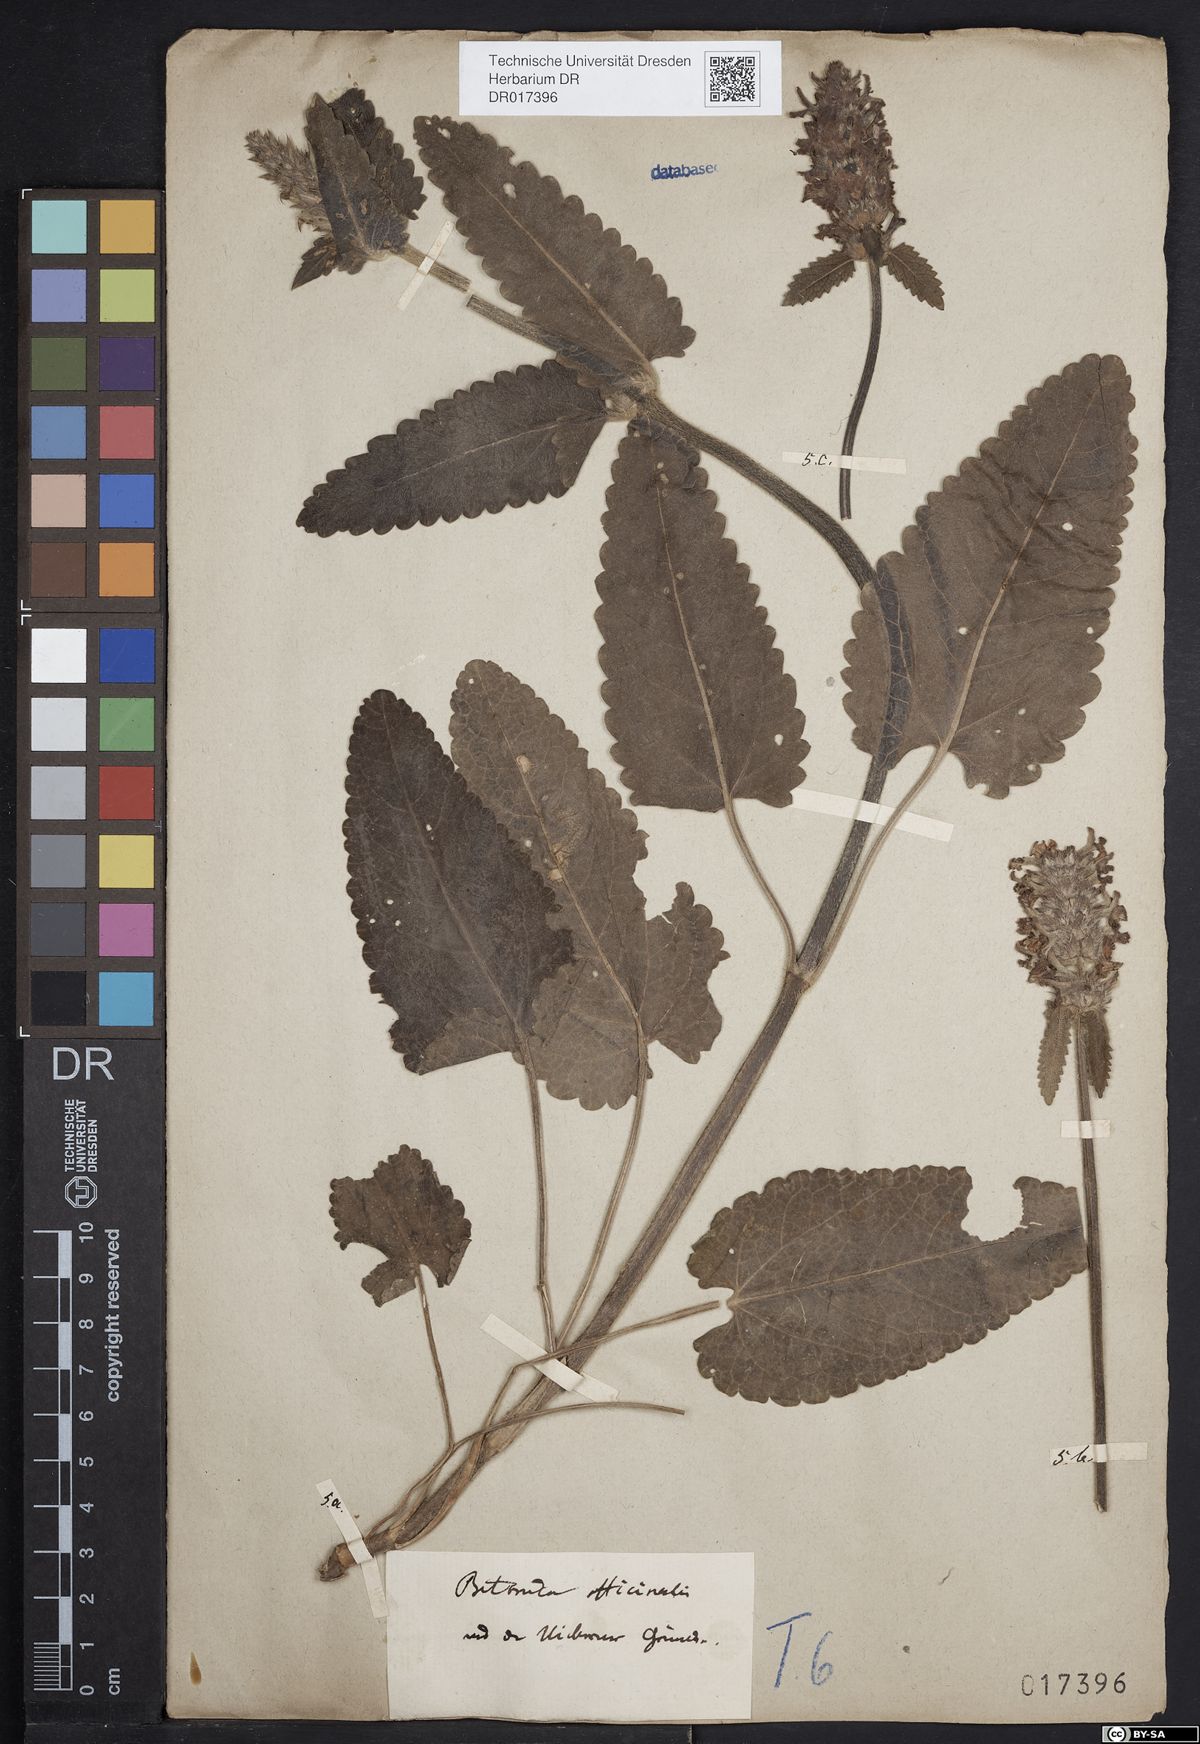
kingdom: Plantae
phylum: Tracheophyta
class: Magnoliopsida
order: Lamiales
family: Lamiaceae
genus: Betonica
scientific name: Betonica officinalis
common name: Bishop's-wort
